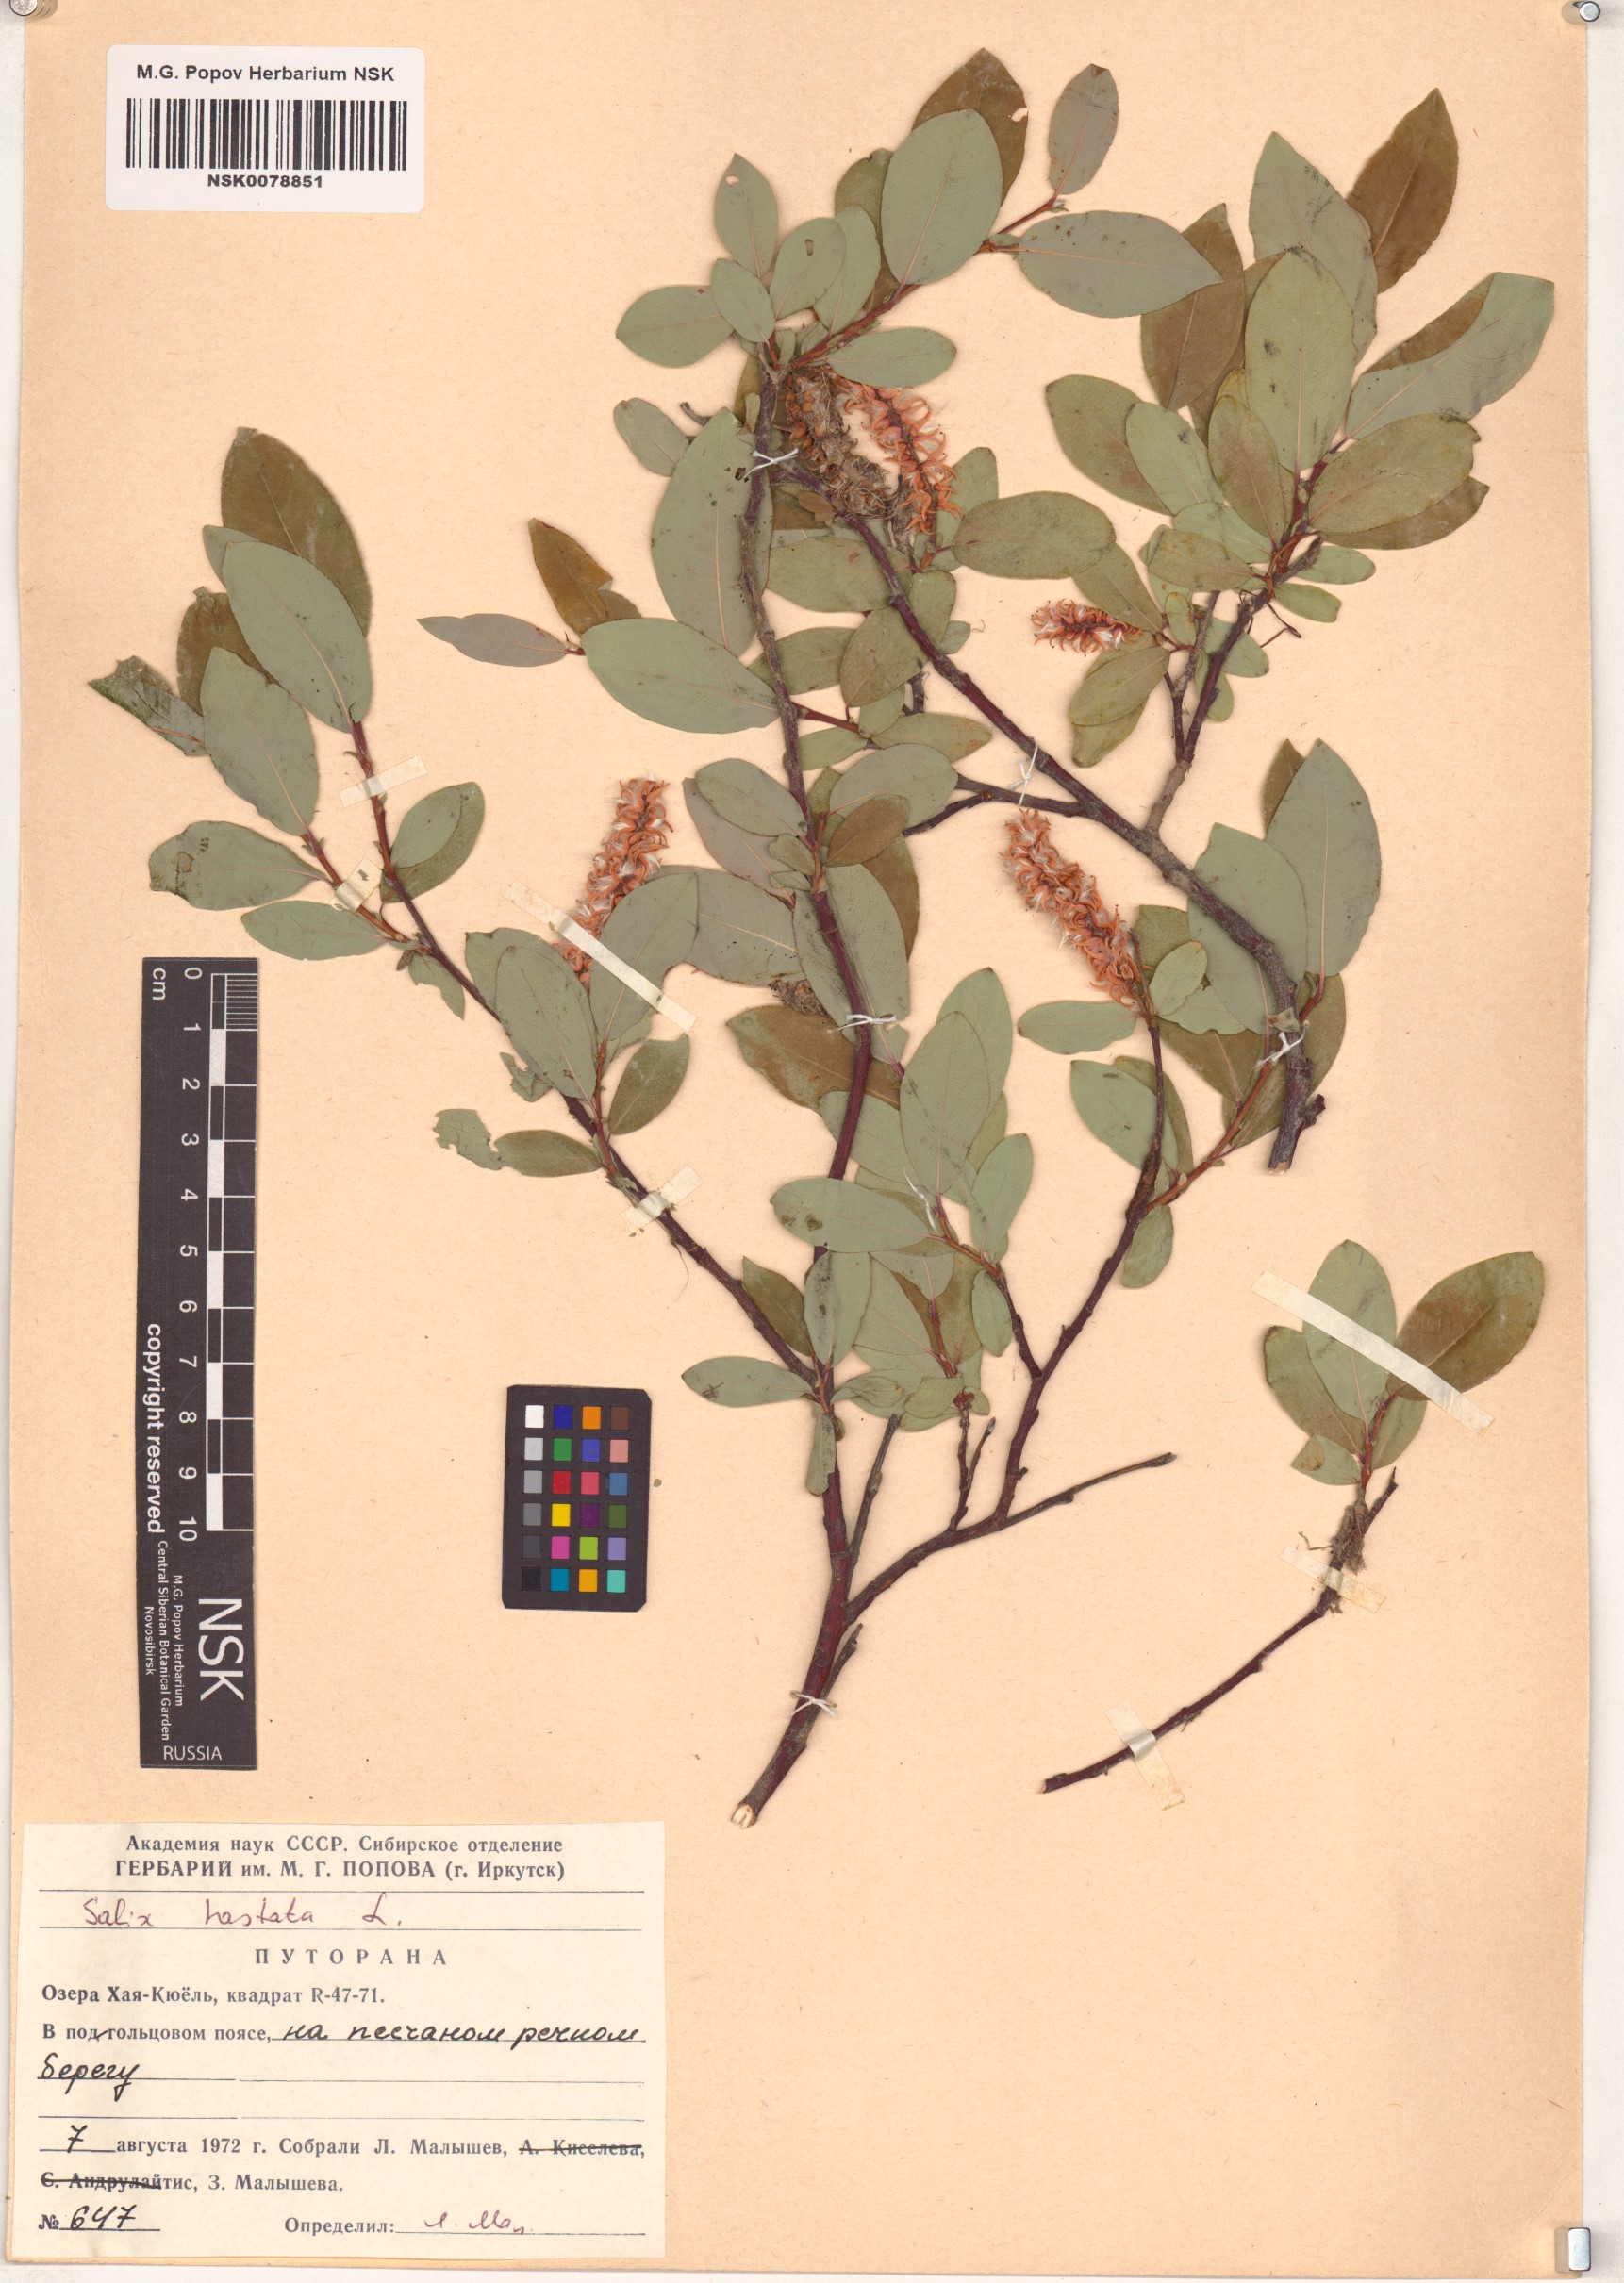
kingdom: Plantae
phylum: Tracheophyta
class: Magnoliopsida
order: Malpighiales
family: Salicaceae
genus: Salix
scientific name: Salix hastata
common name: Halberd willow
